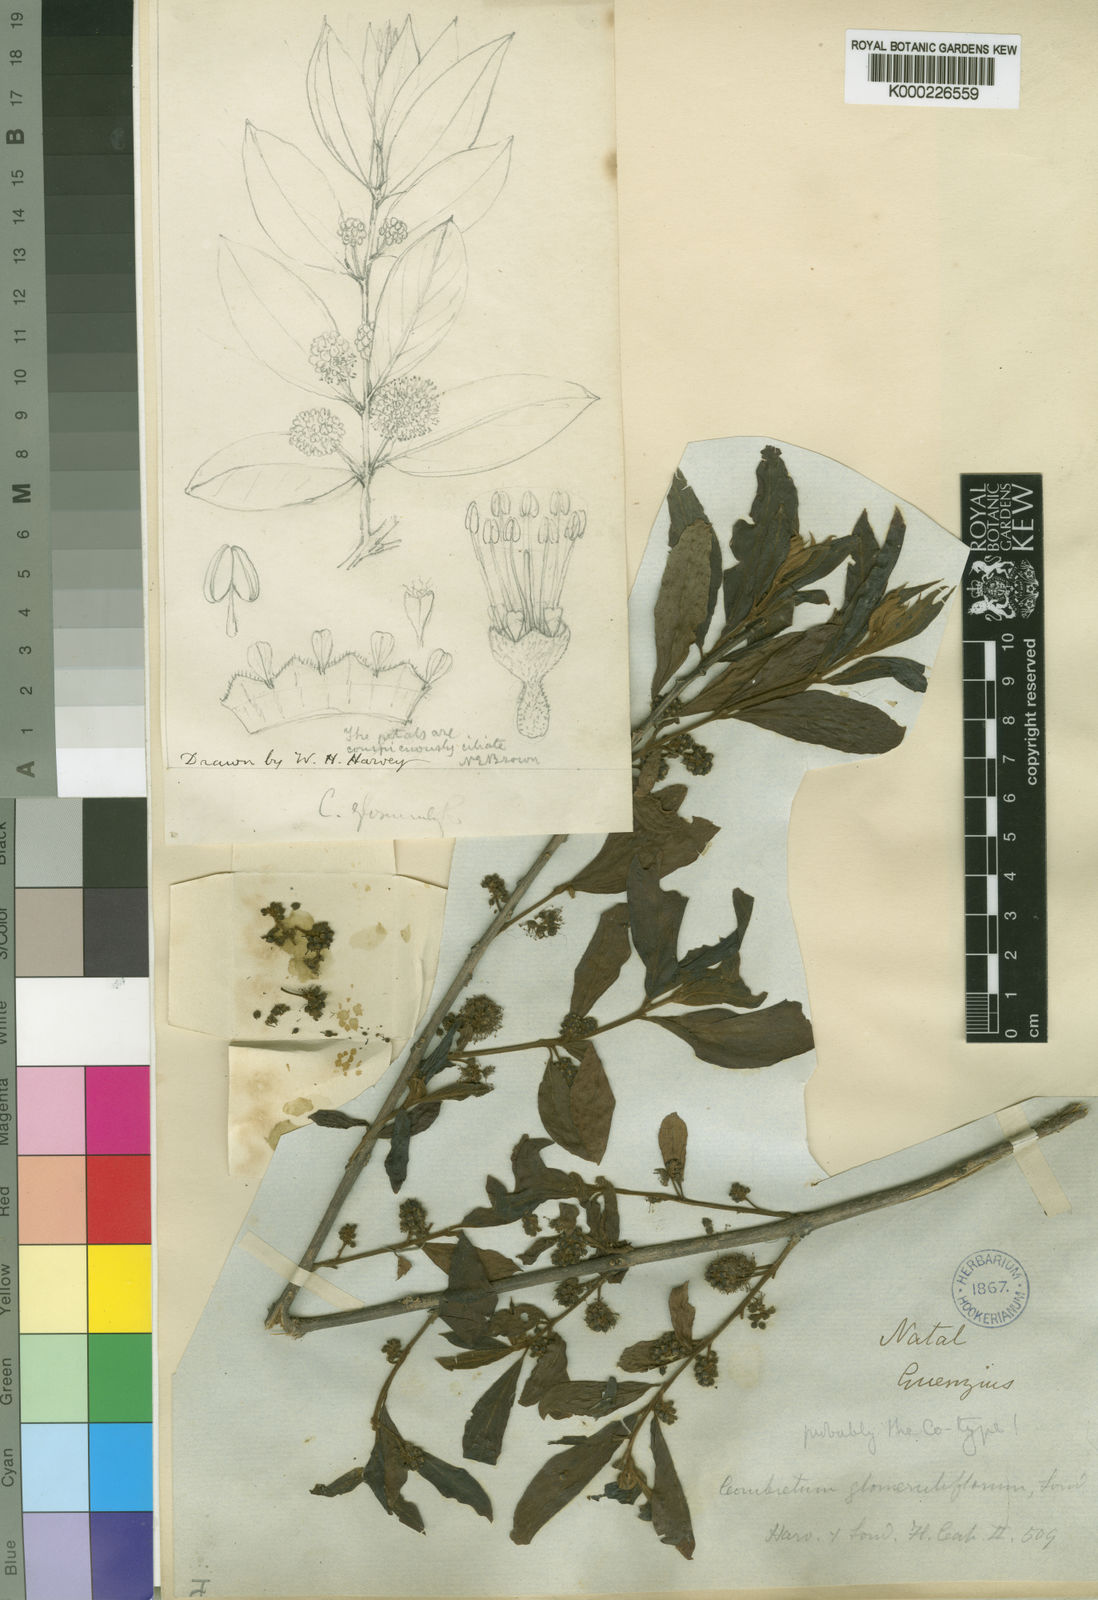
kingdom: Plantae
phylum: Tracheophyta
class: Magnoliopsida
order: Myrtales
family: Combretaceae
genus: Combretum
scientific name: Combretum erythrophyllum
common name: Bush-willow
